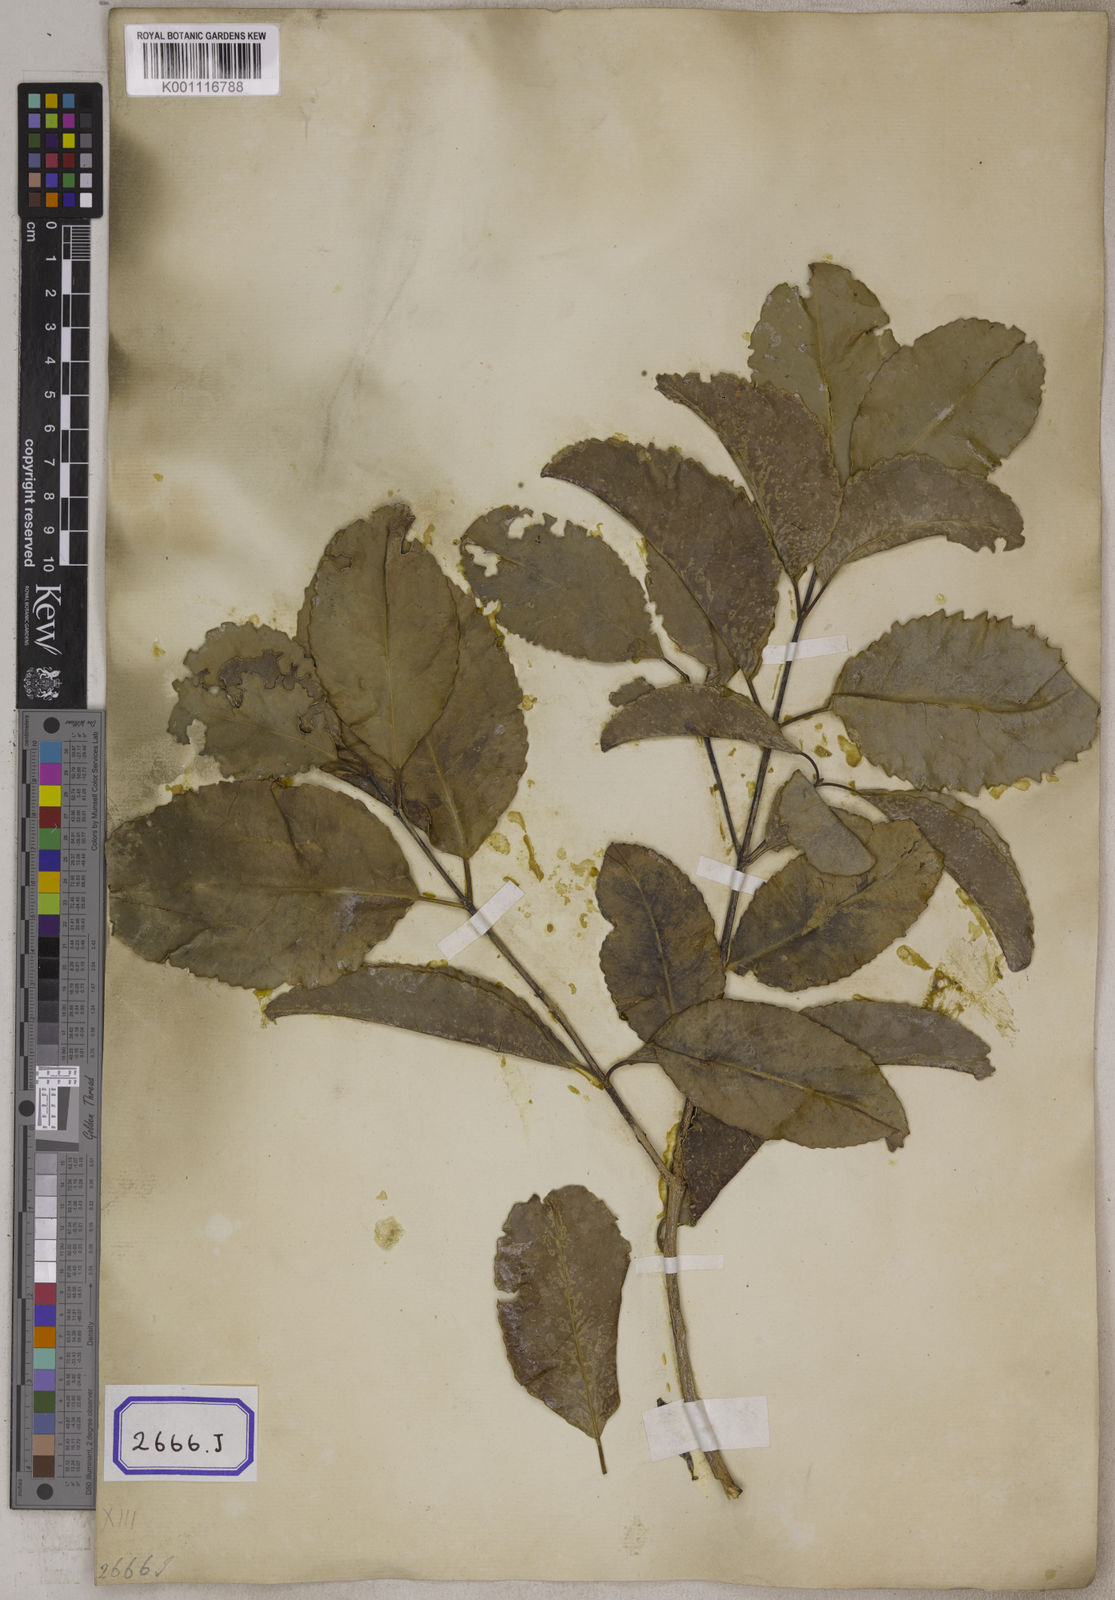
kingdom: Plantae
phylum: Tracheophyta
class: Magnoliopsida
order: Oxalidales
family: Elaeocarpaceae
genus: Elaeocarpus
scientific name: Elaeocarpus serratus
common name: Ceylon-olive
